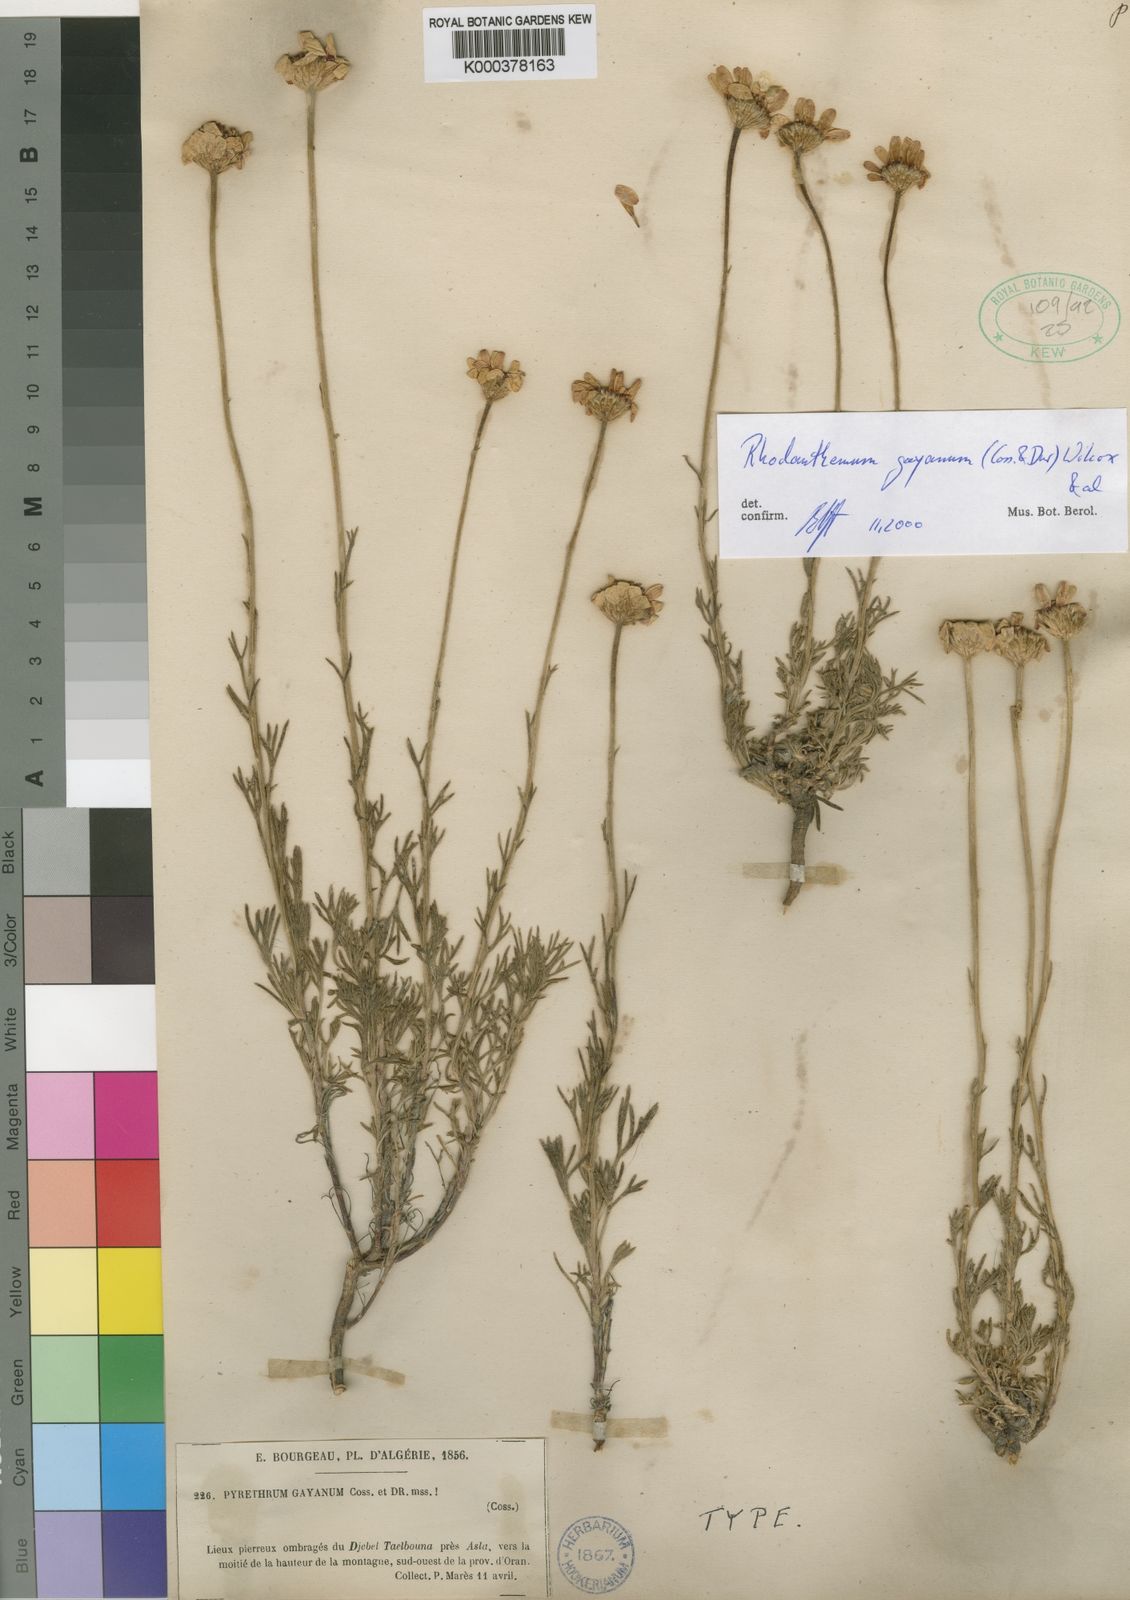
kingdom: Plantae
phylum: Tracheophyta
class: Magnoliopsida
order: Asterales
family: Asteraceae
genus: Rhodanthemum
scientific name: Rhodanthemum
